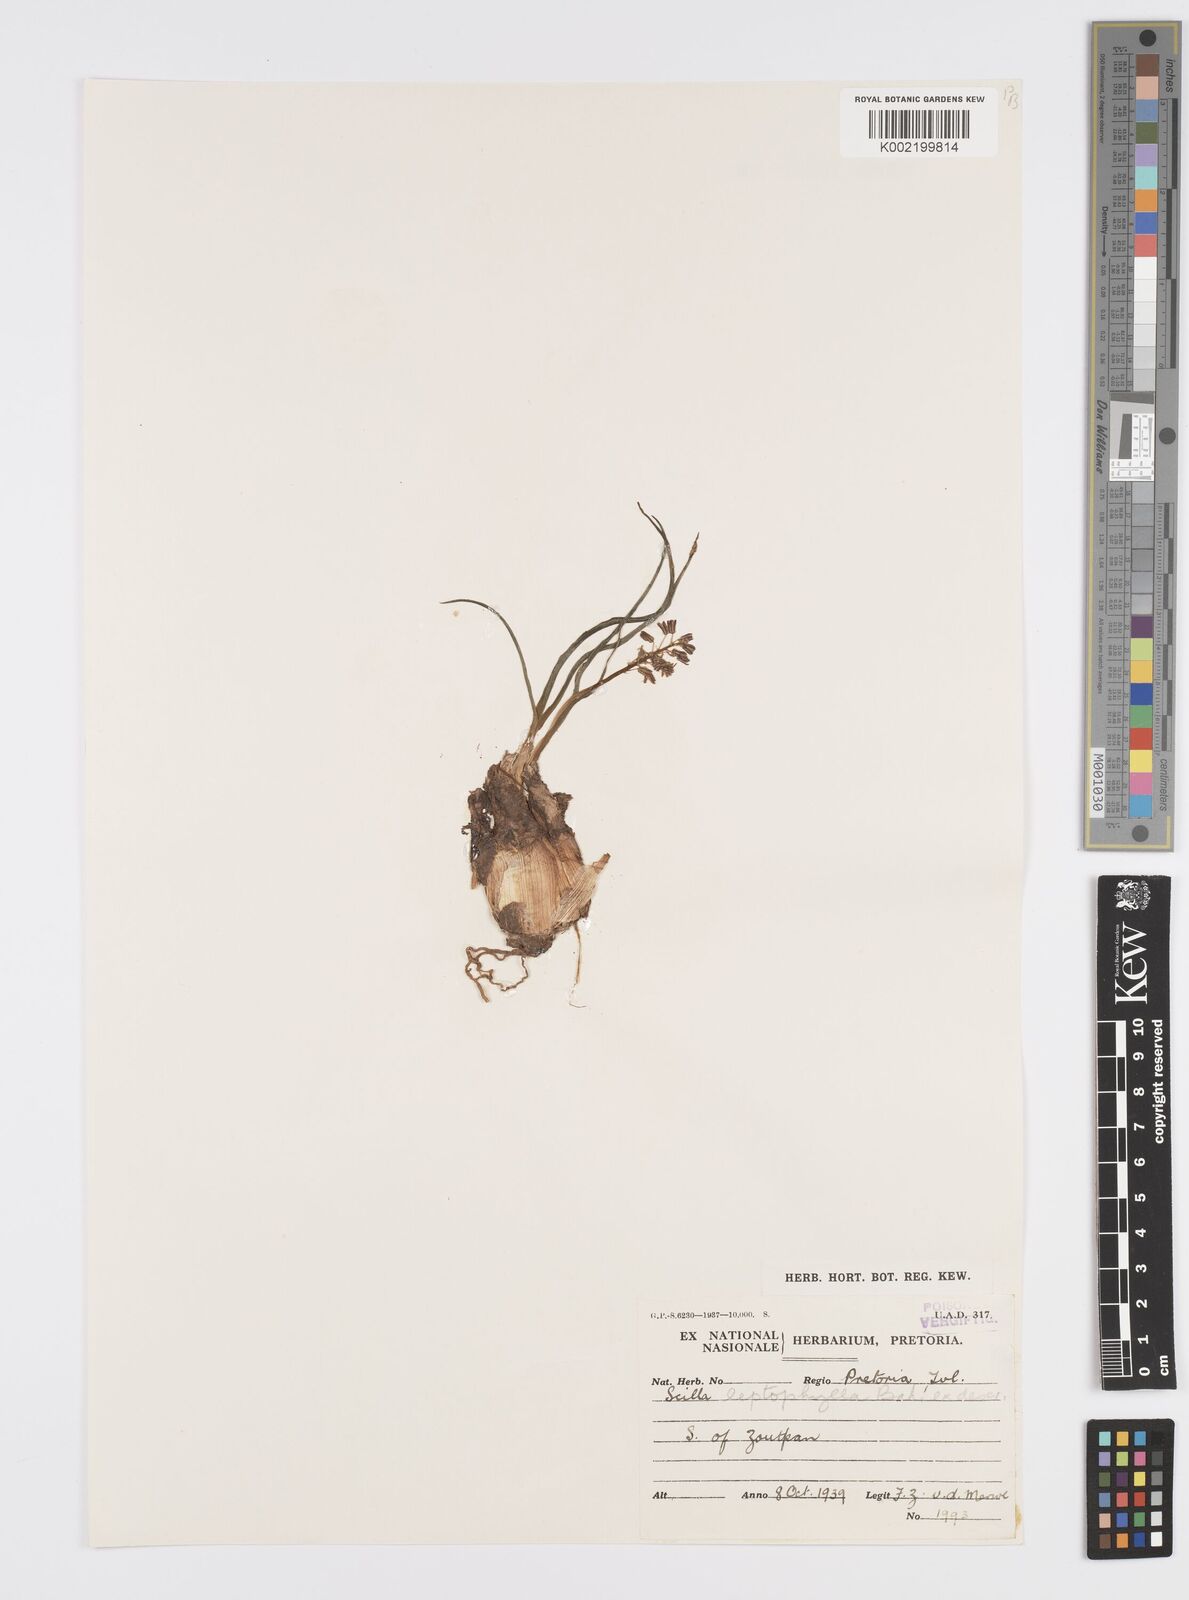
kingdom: Plantae
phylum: Tracheophyta
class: Liliopsida
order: Asparagales
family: Asparagaceae
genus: Ledebouria
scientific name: Ledebouria cooperi
